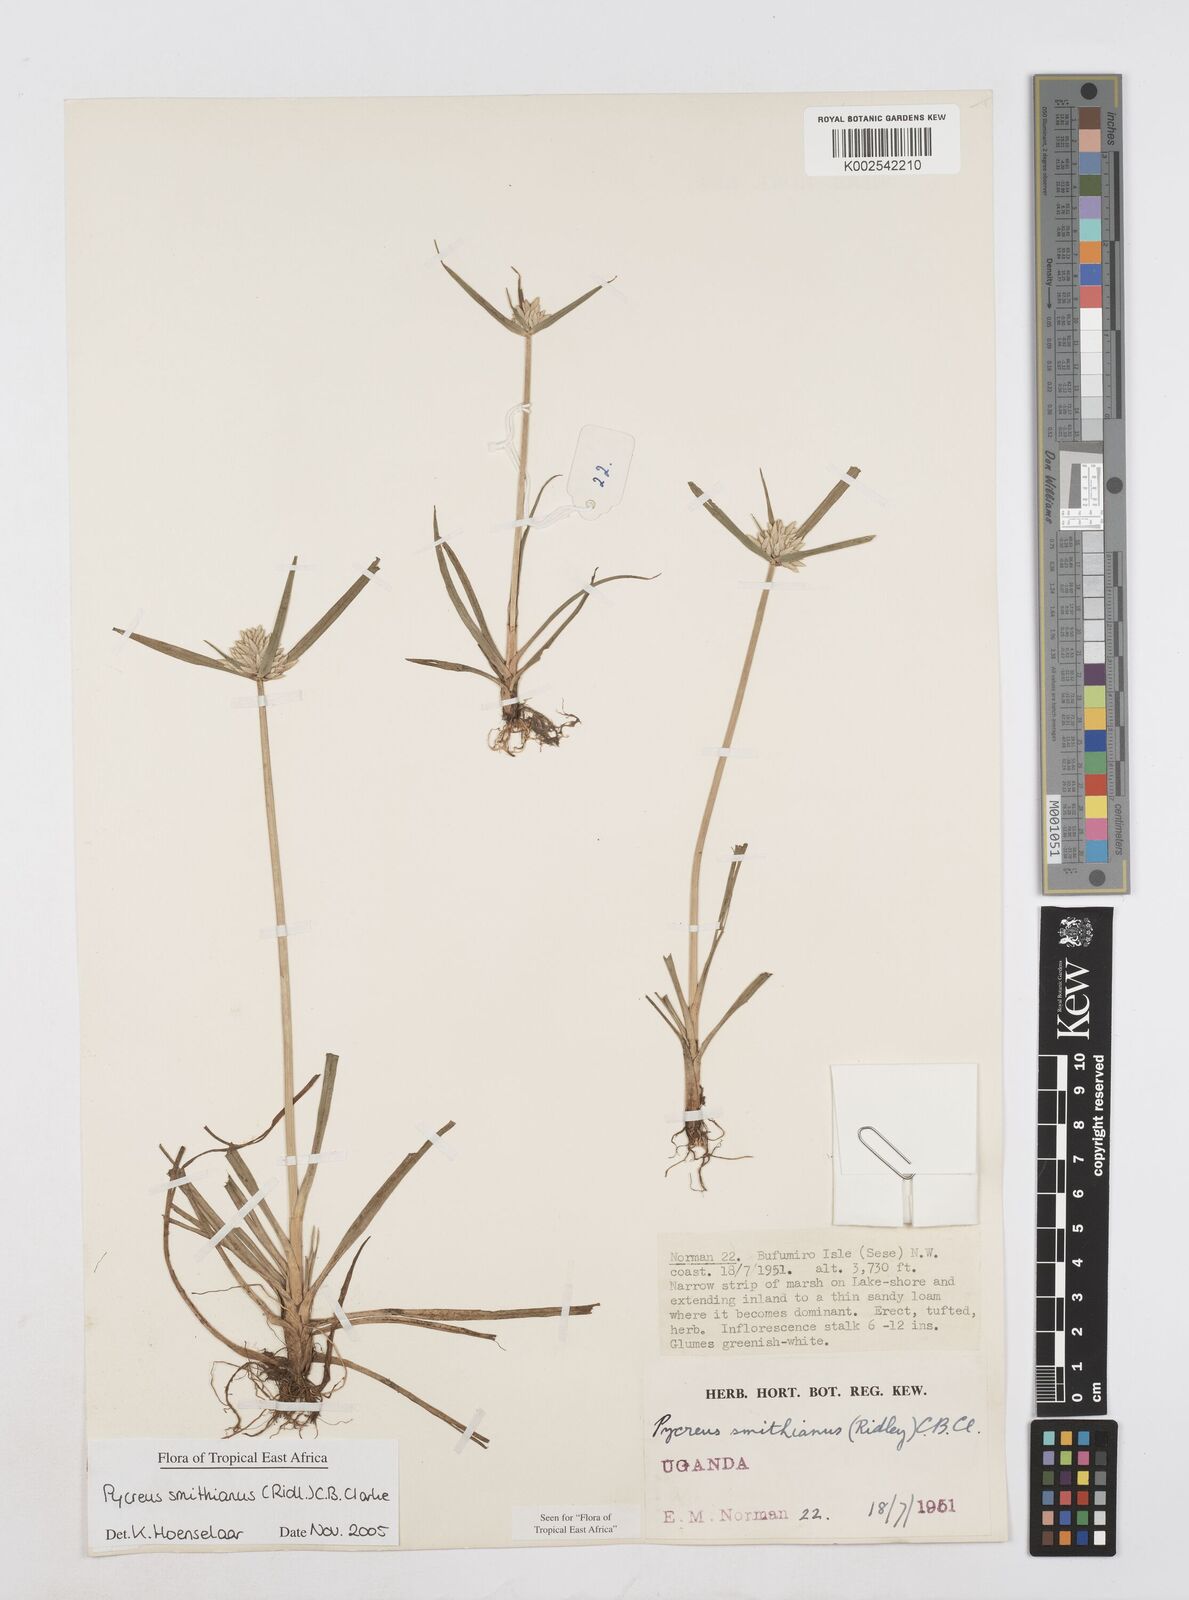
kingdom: Plantae
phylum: Tracheophyta
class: Liliopsida
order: Poales
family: Cyperaceae
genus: Cyperus
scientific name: Cyperus smithianus
